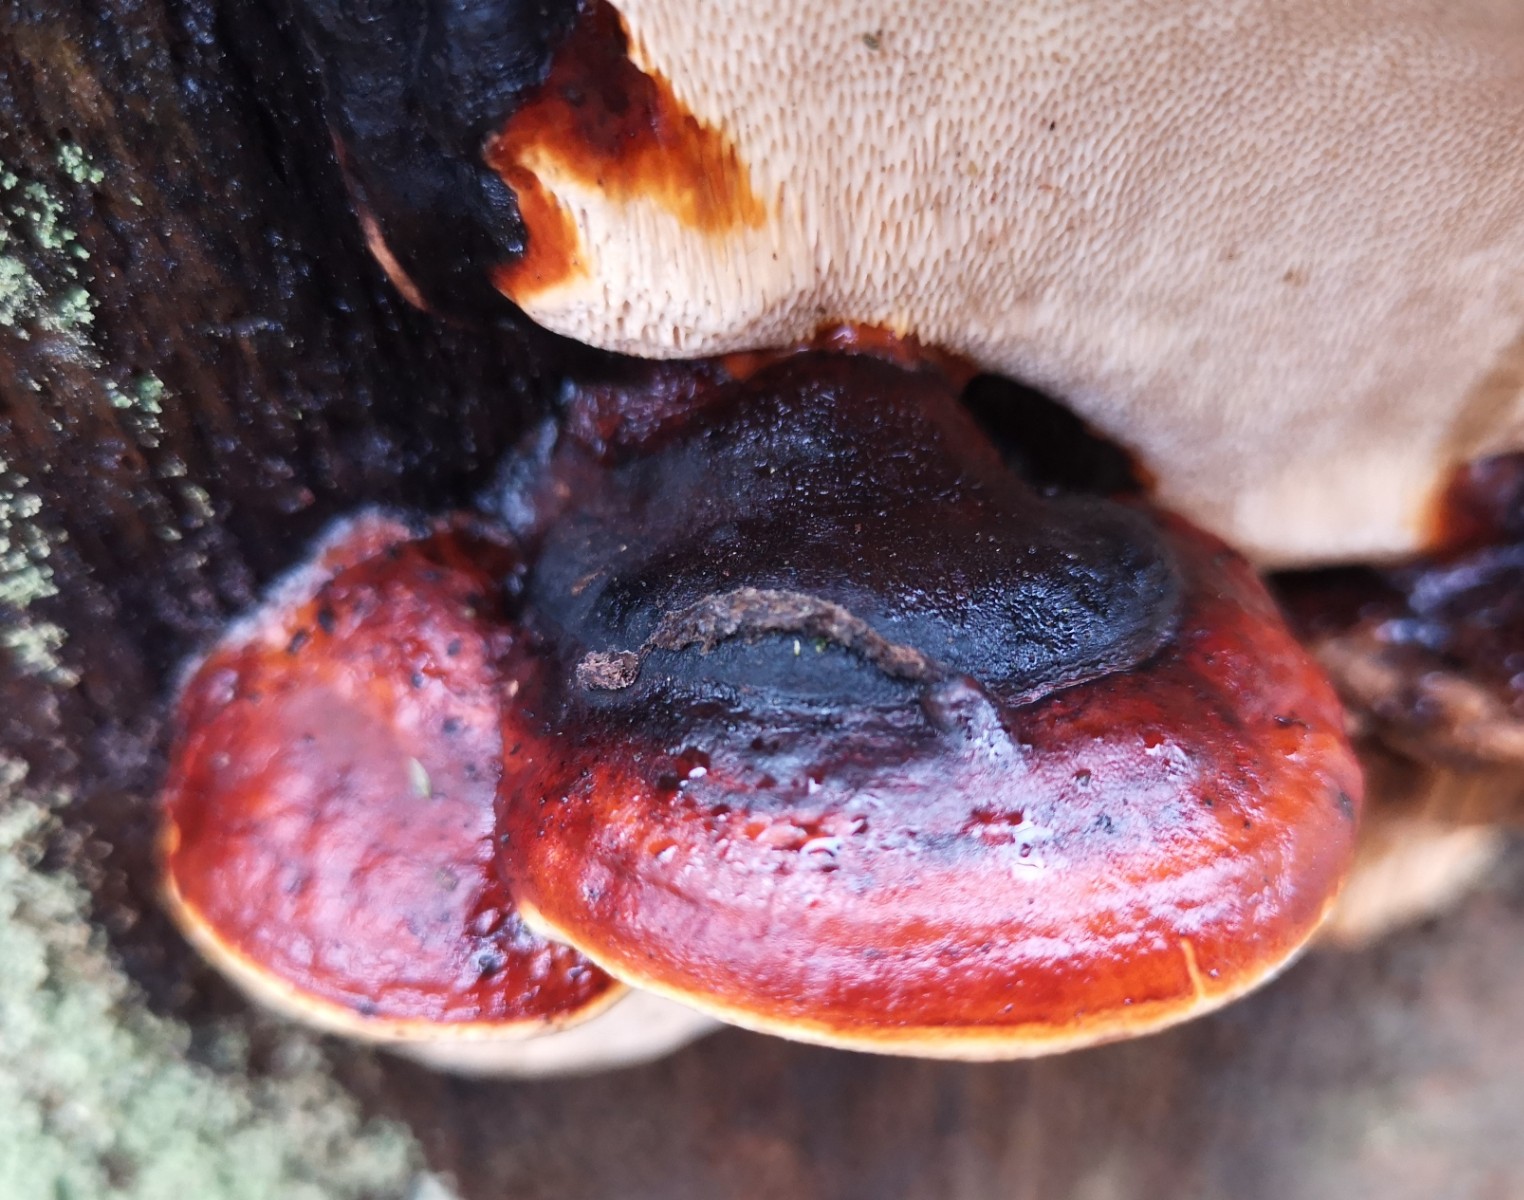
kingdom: Fungi
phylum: Basidiomycota
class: Agaricomycetes
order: Polyporales
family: Fomitopsidaceae
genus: Fomitopsis
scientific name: Fomitopsis pinicola
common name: randbæltet hovporesvamp
